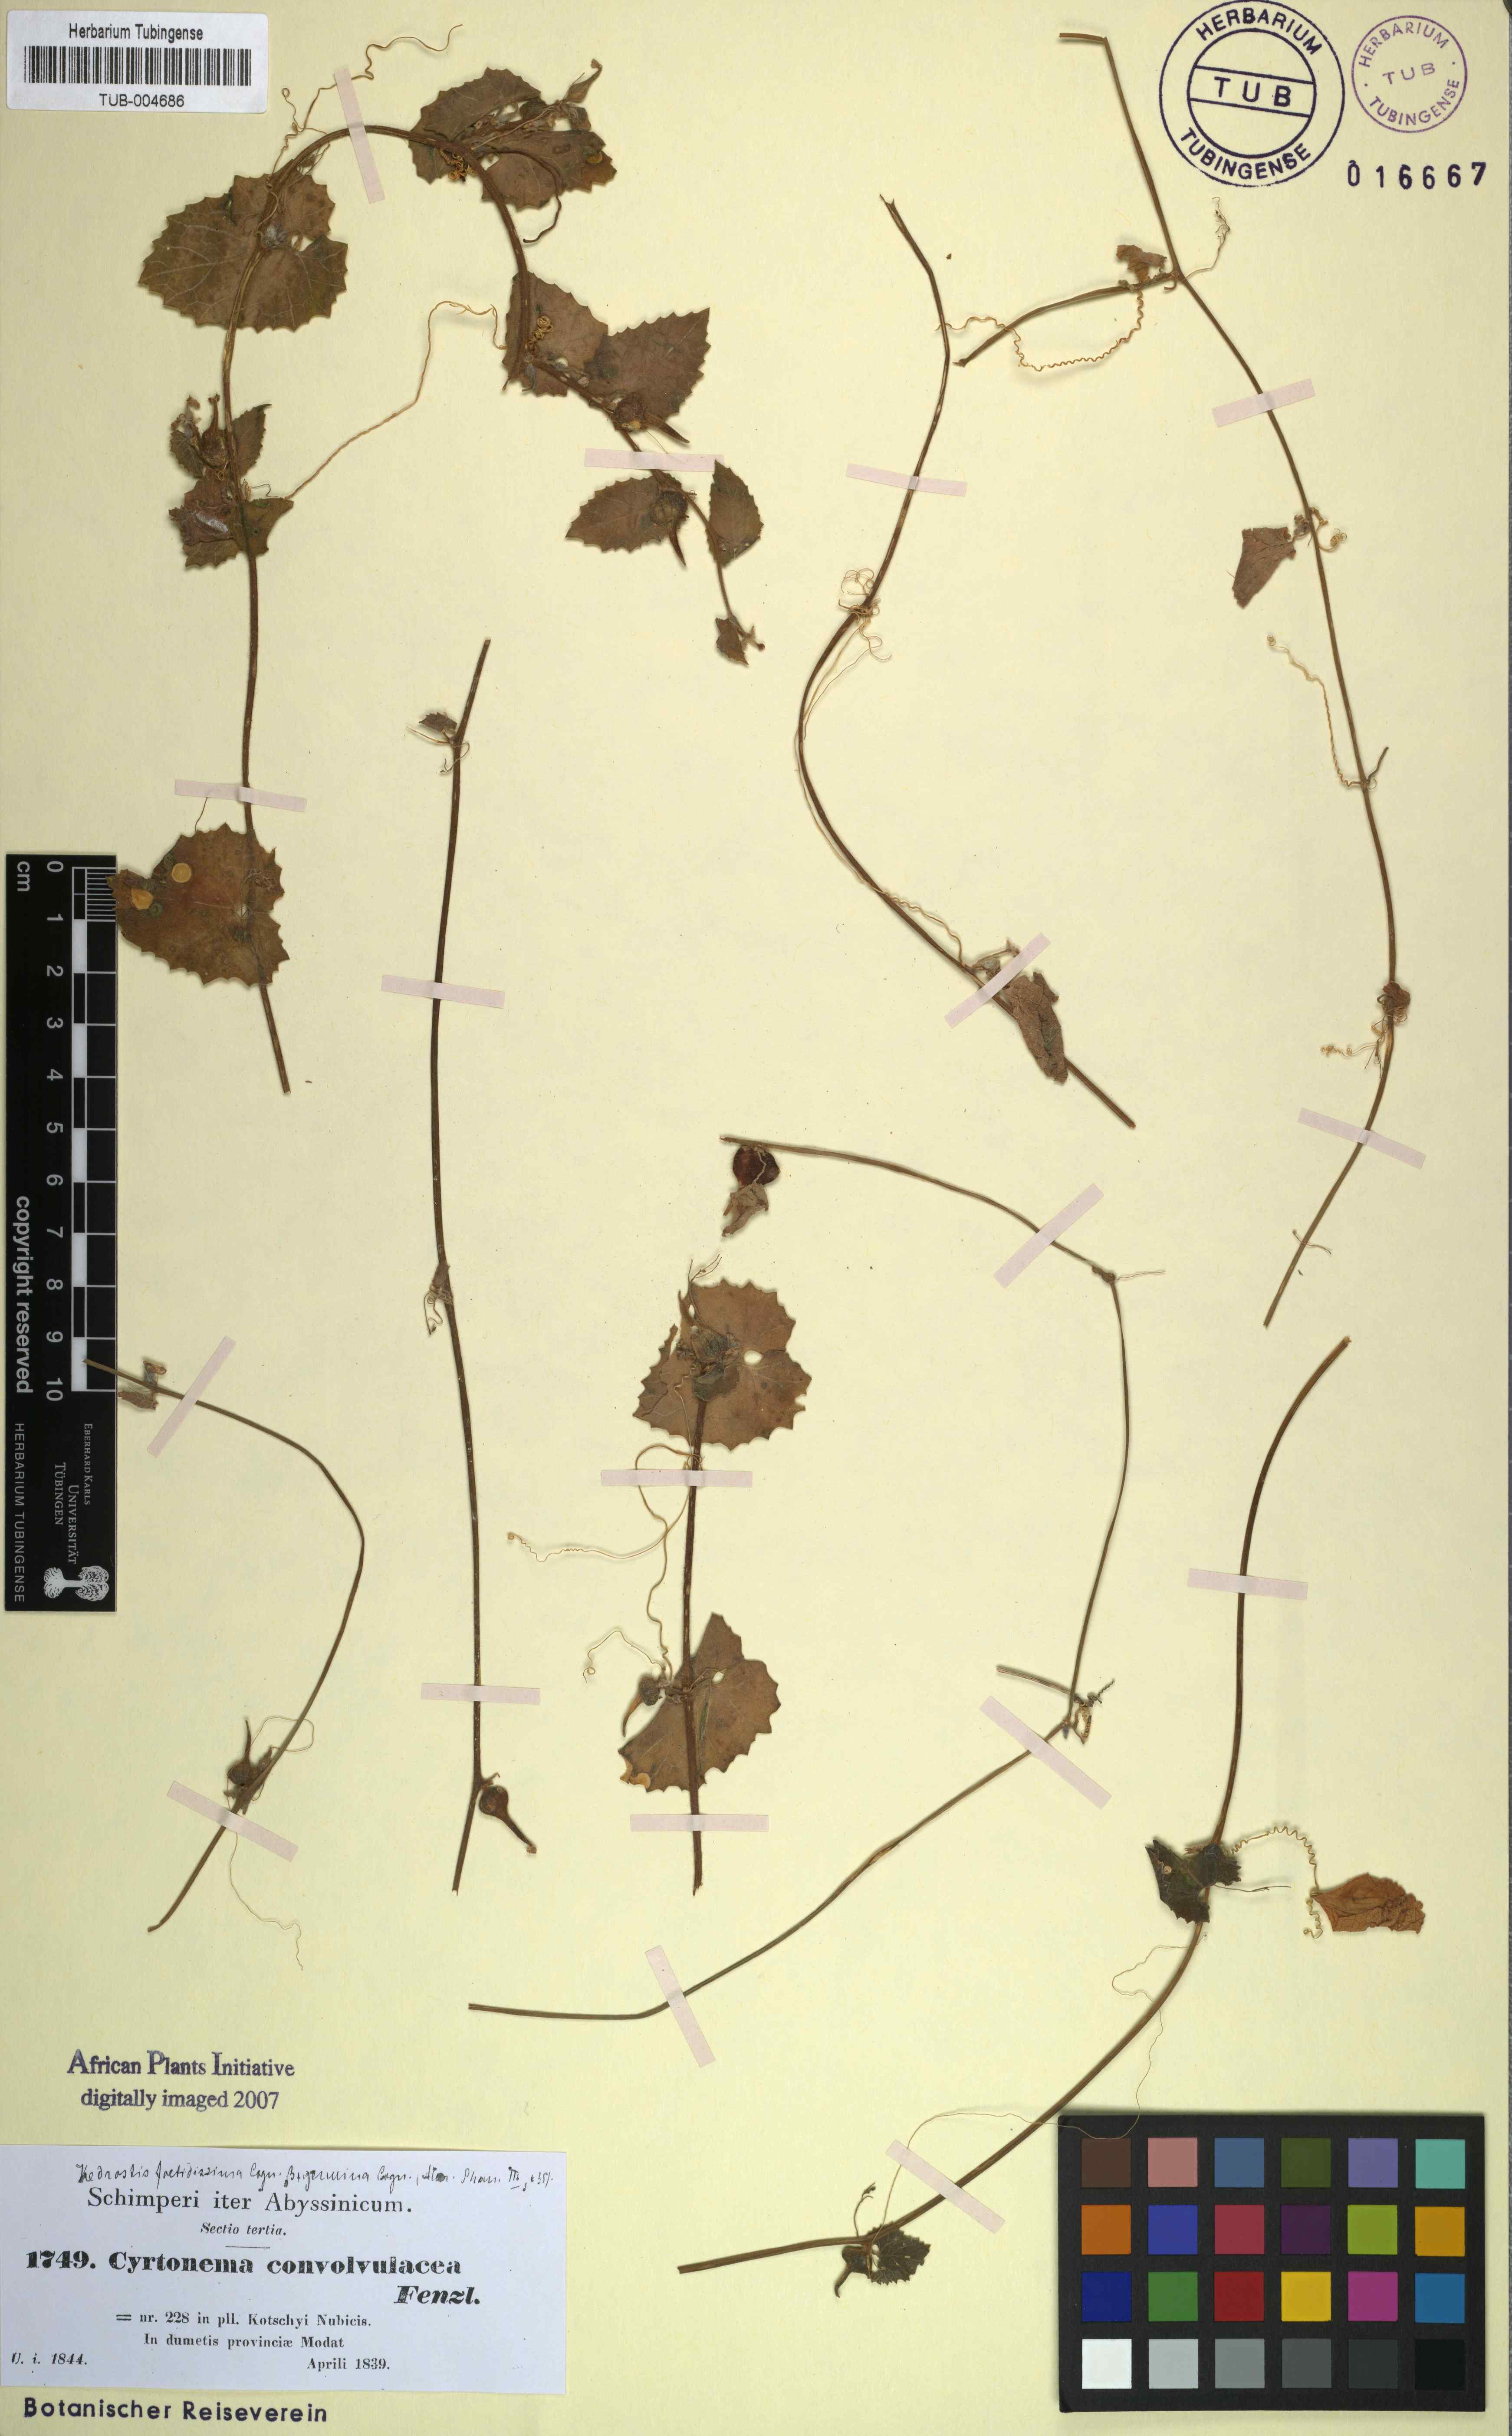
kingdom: Plantae
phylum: Tracheophyta
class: Magnoliopsida
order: Cucurbitales
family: Cucurbitaceae
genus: Kedrostis
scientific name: Kedrostis foetidissima
